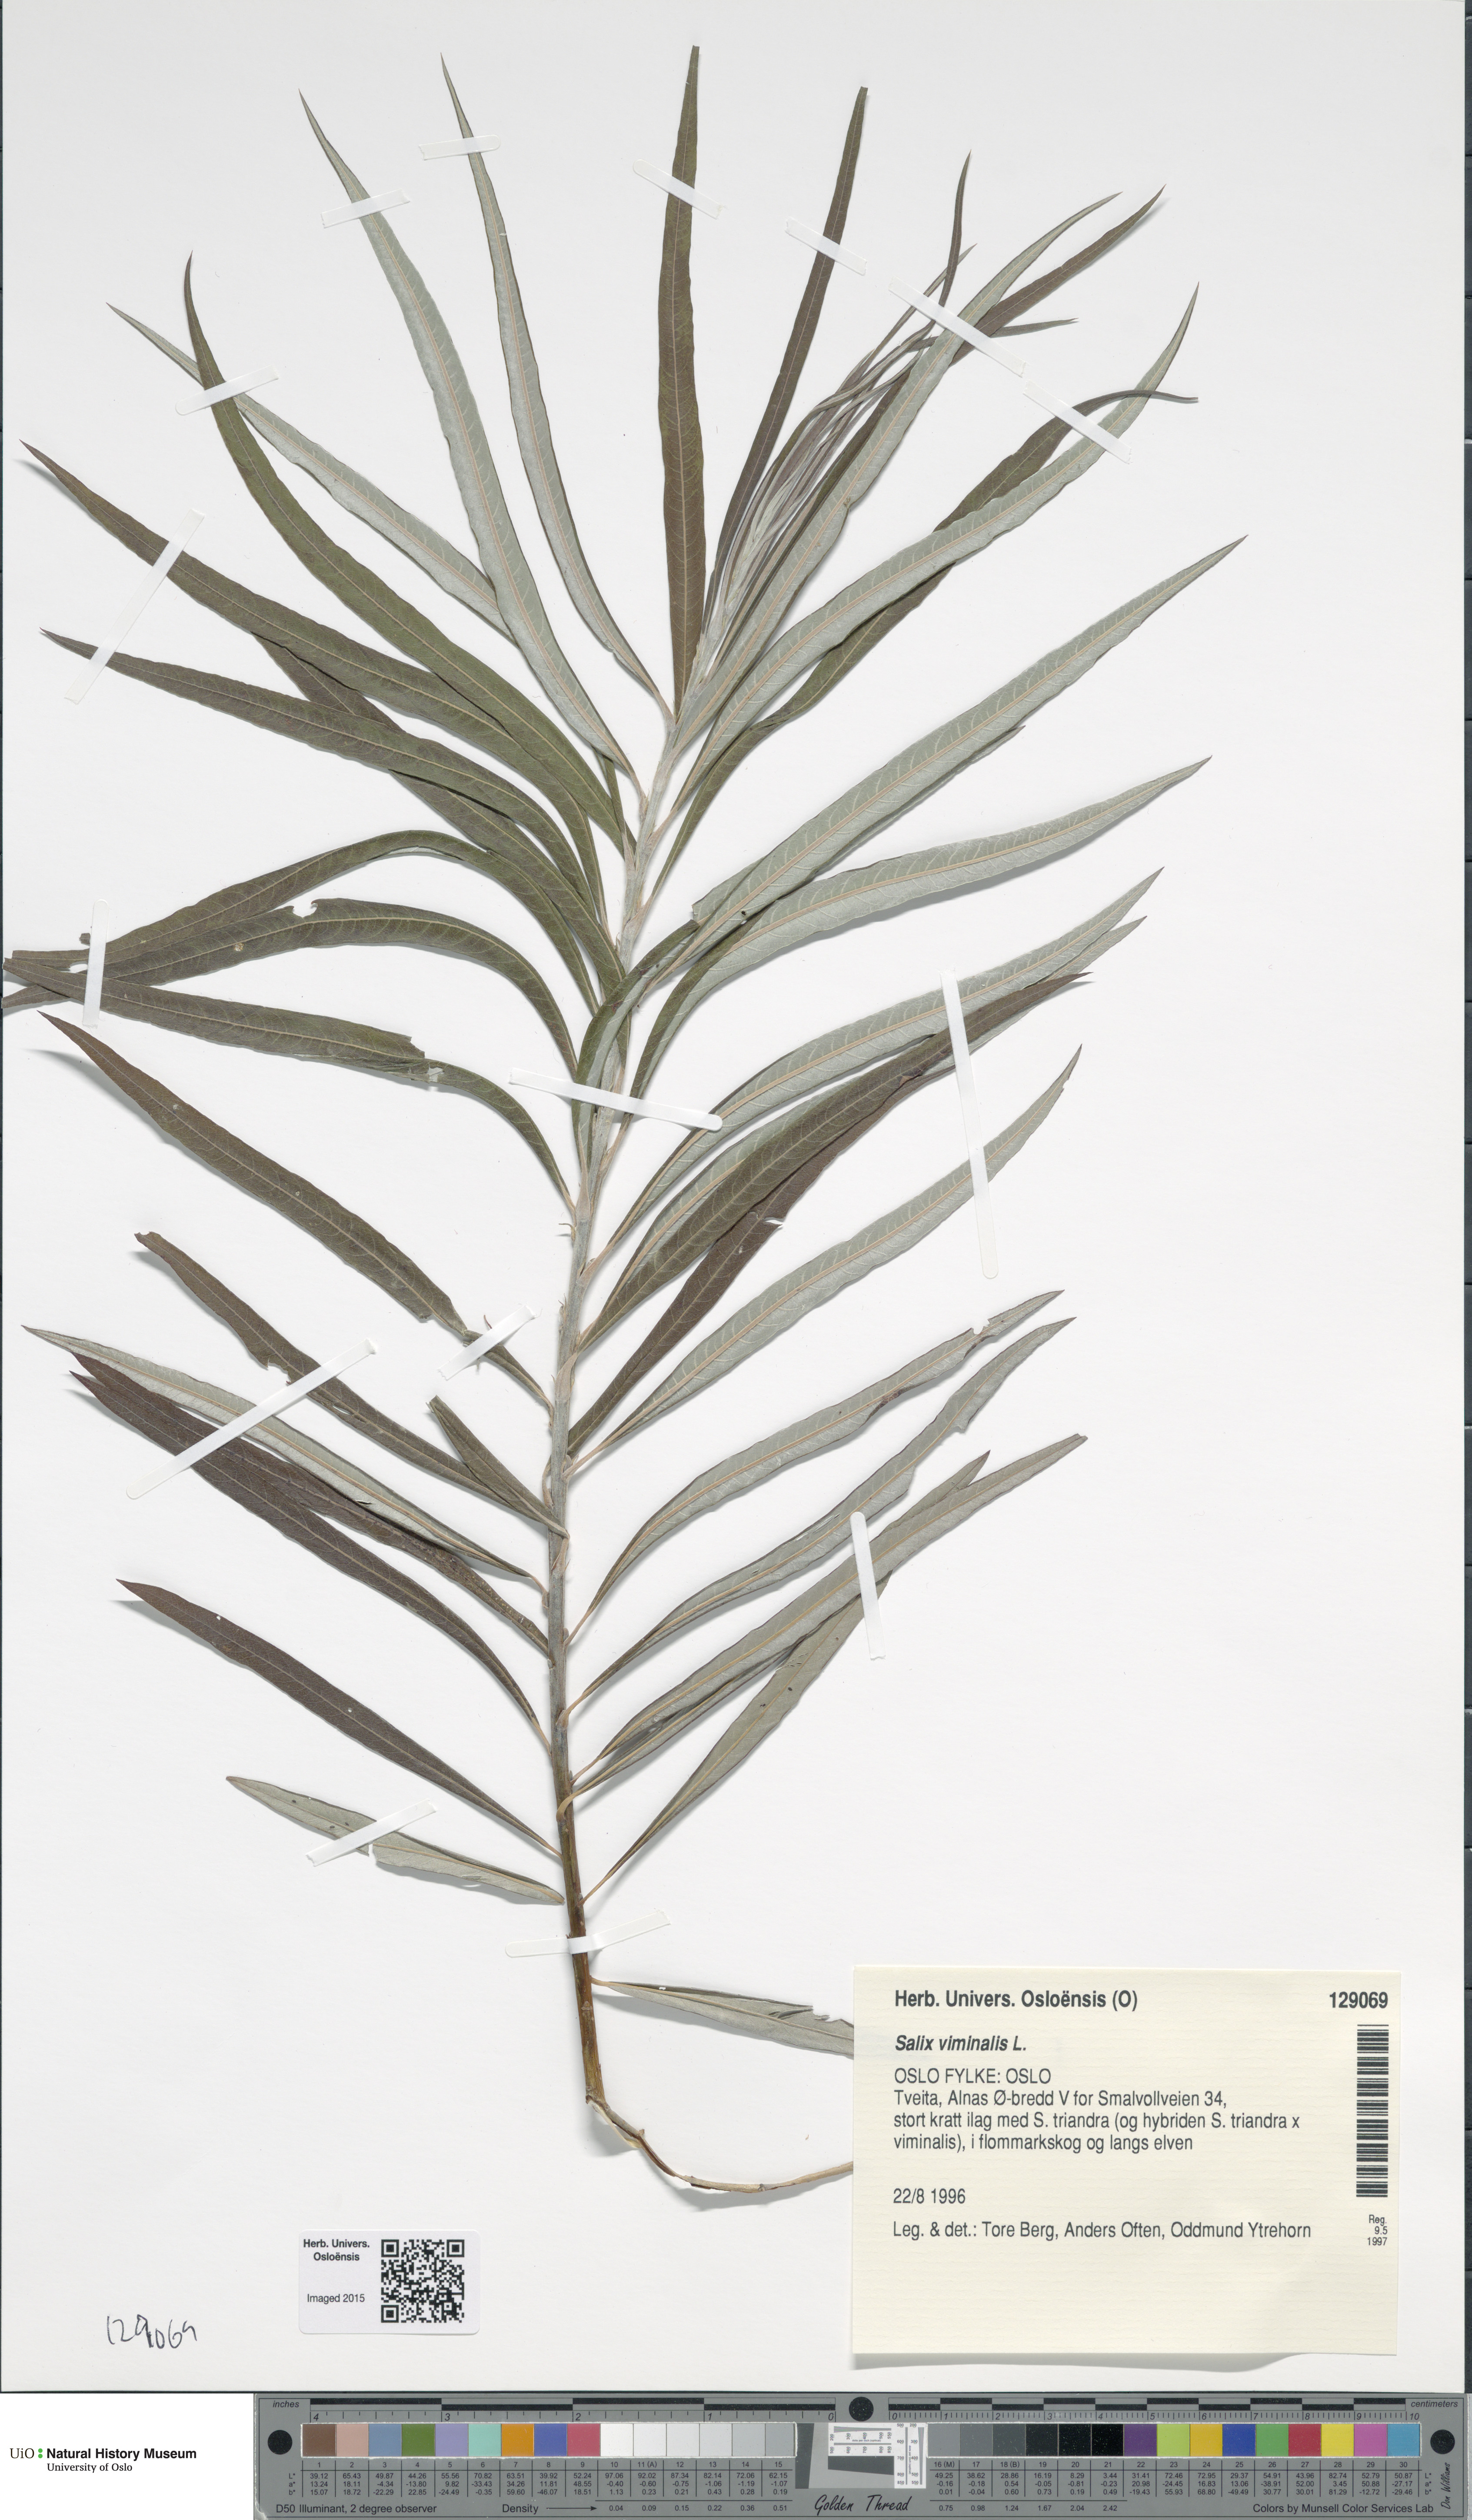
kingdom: Plantae
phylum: Tracheophyta
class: Magnoliopsida
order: Malpighiales
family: Salicaceae
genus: Salix
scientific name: Salix viminalis
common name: Osier
